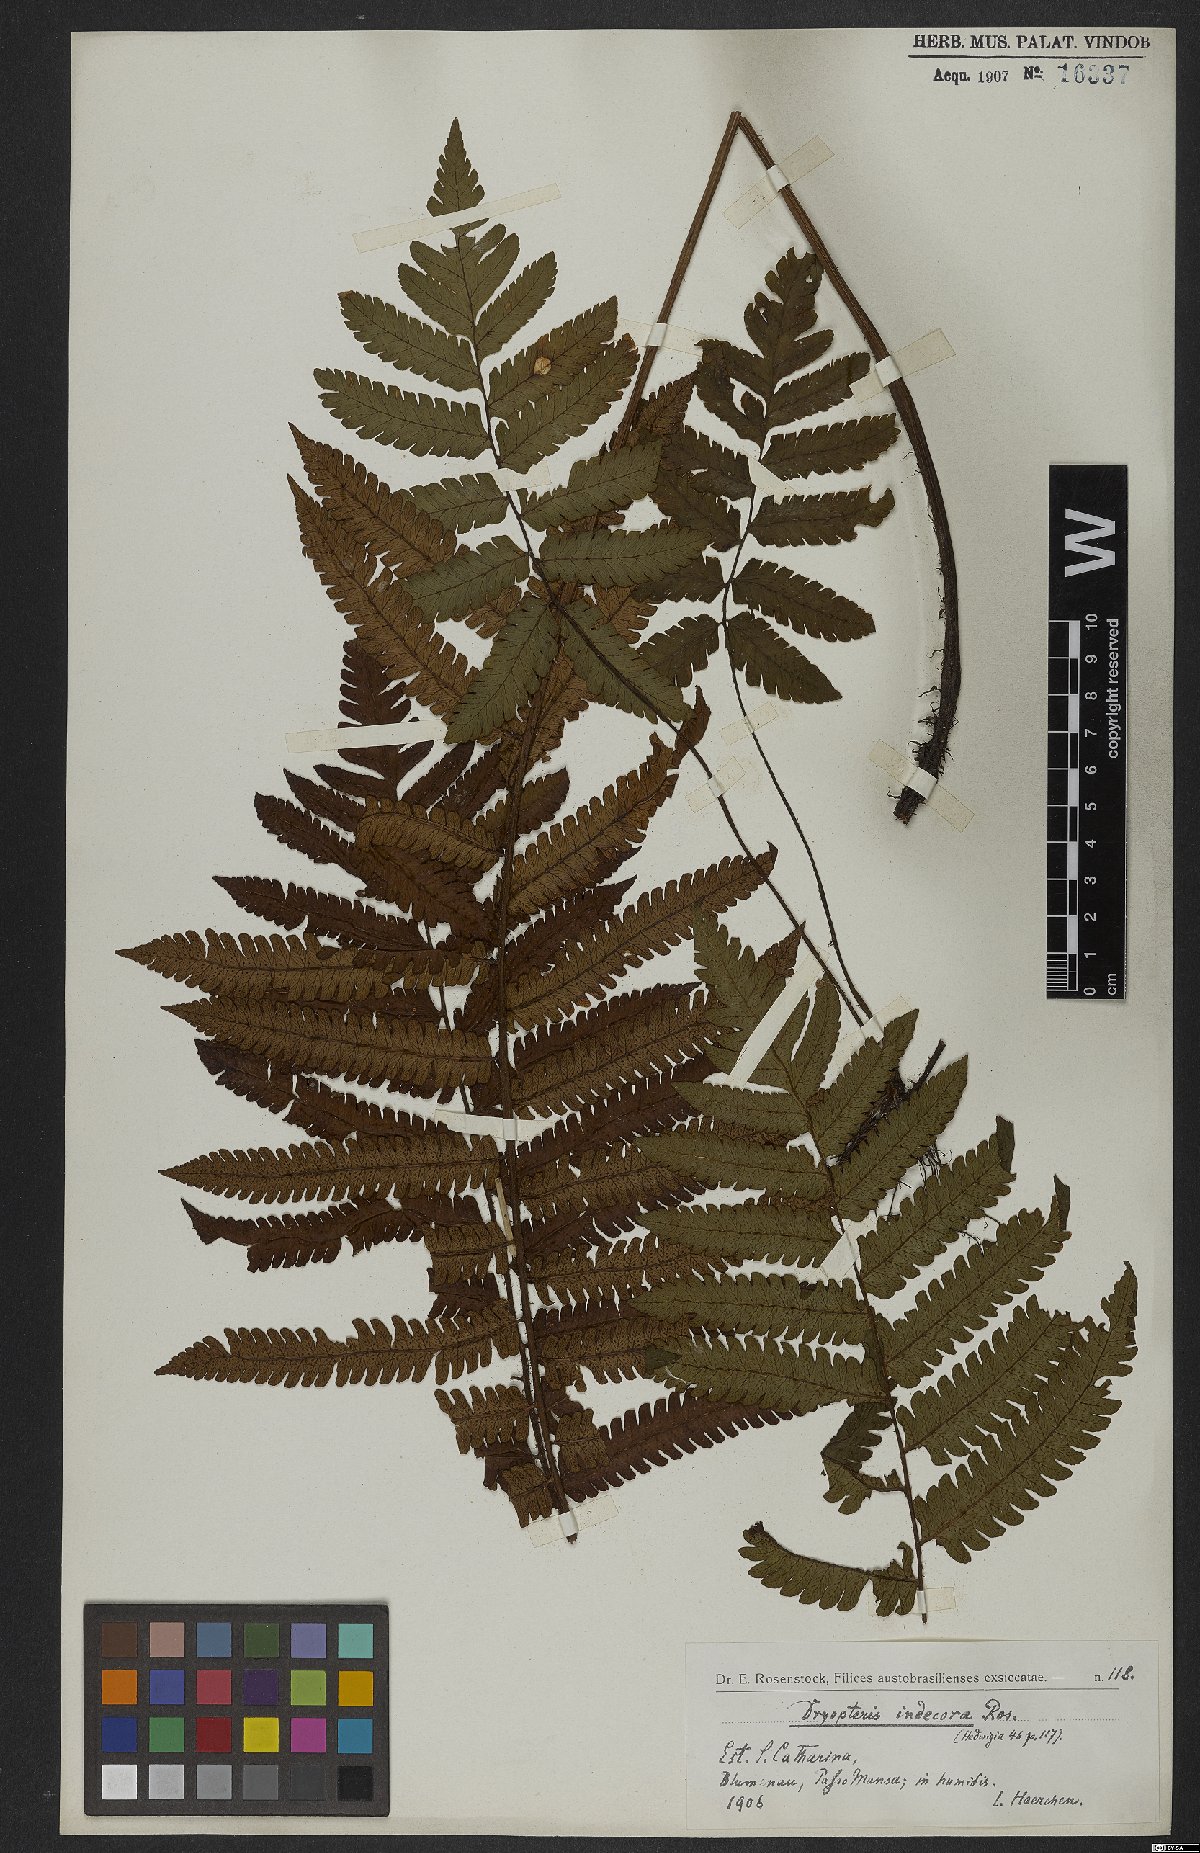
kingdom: Plantae
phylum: Tracheophyta
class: Polypodiopsida
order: Polypodiales
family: Dryopteridaceae
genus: Dryopteris
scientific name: Dryopteris cinnamomea
